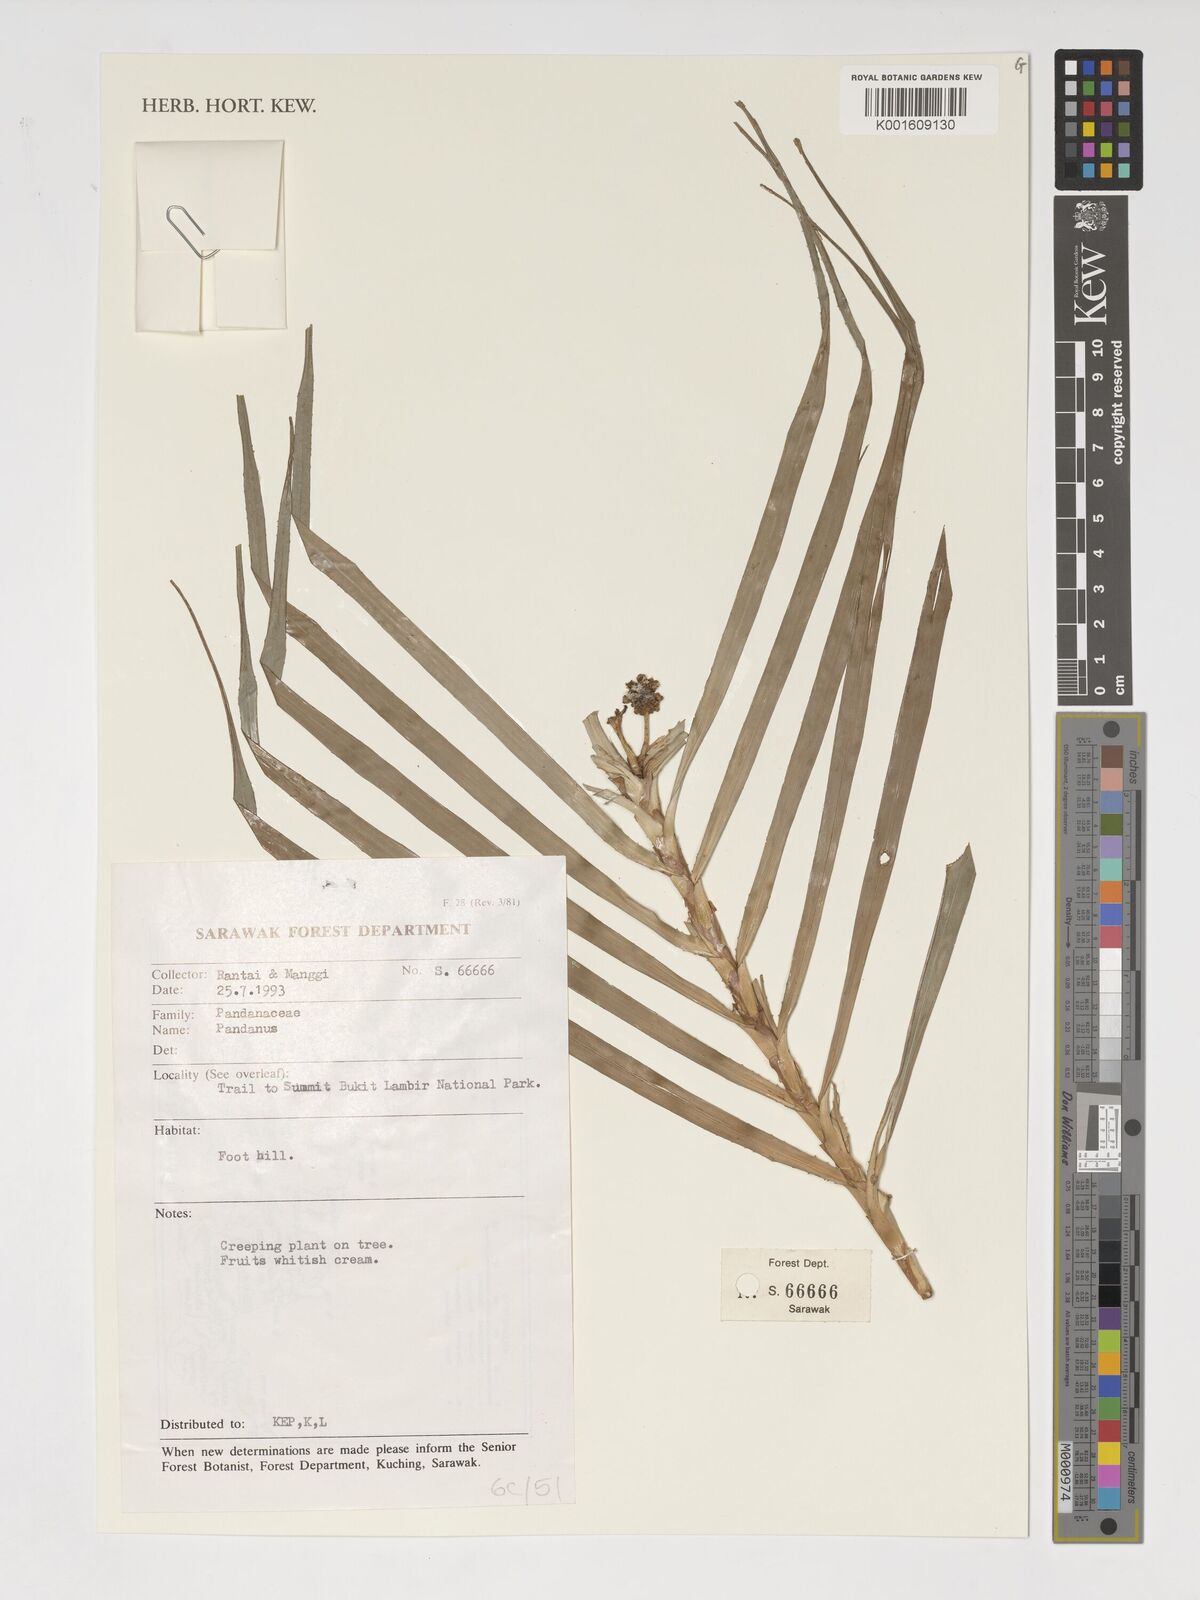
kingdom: Plantae
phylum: Tracheophyta
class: Liliopsida
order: Pandanales
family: Pandanaceae
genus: Pandanus
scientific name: Pandanus
